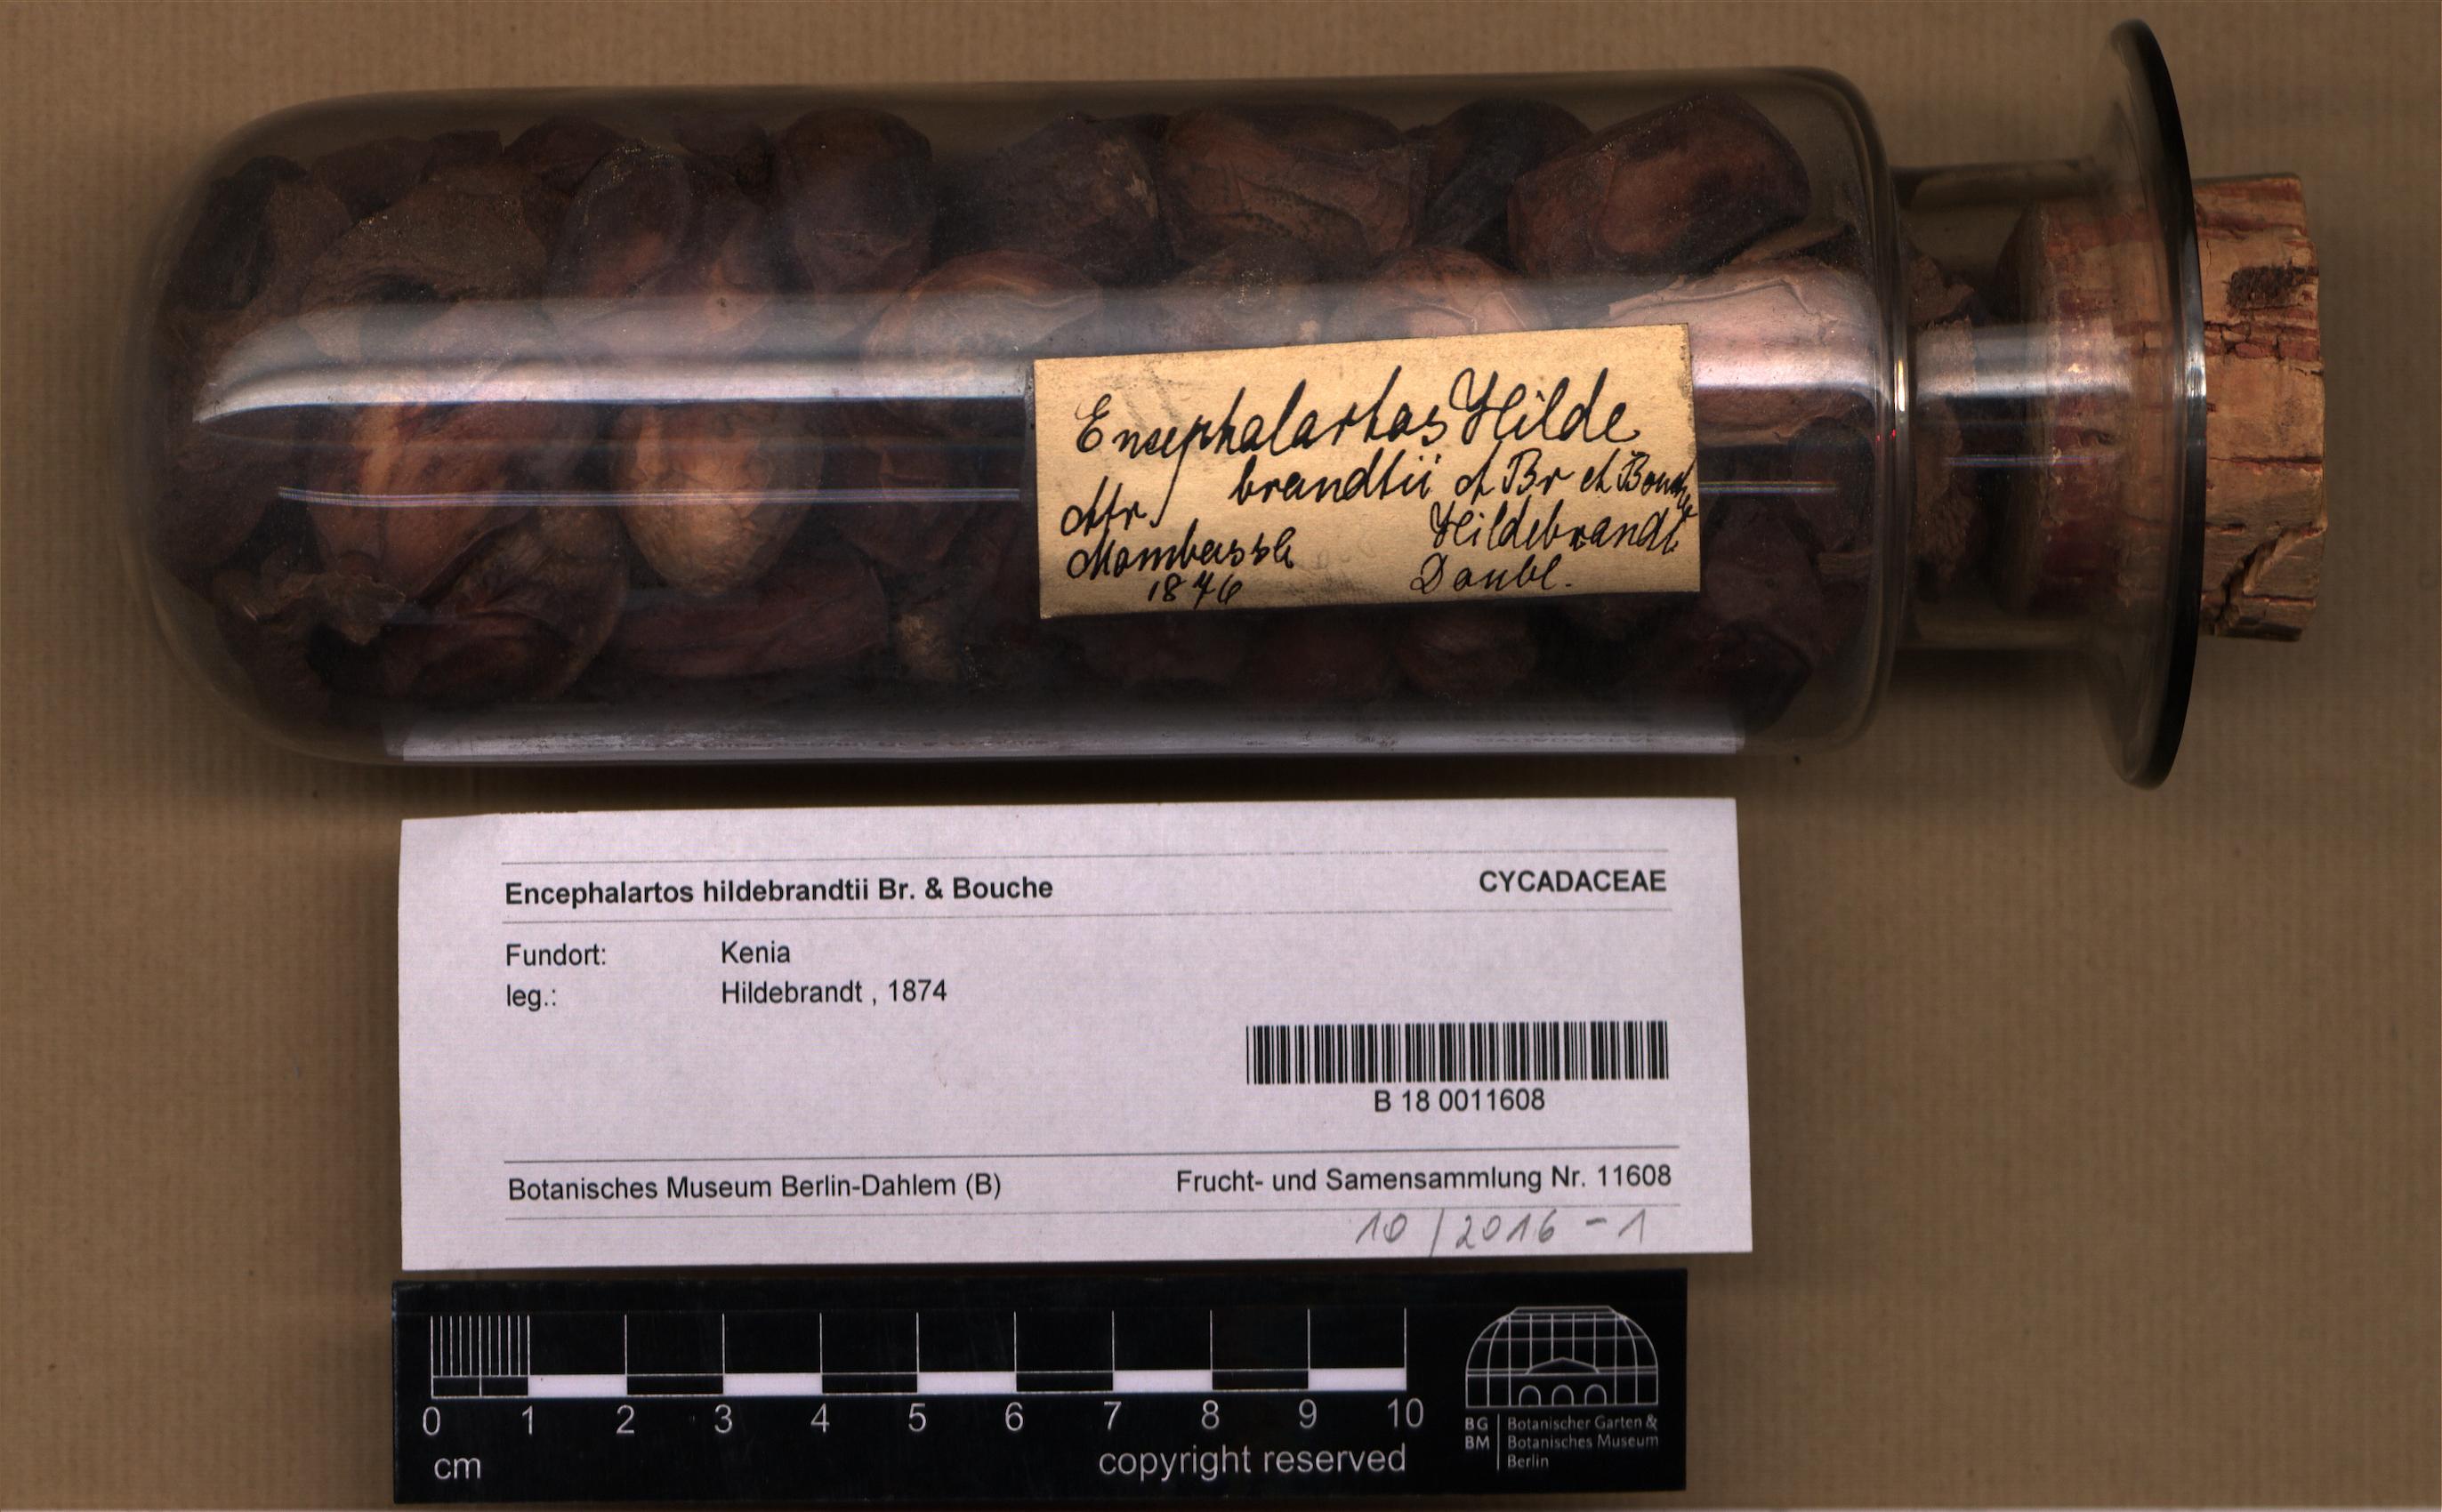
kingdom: Plantae
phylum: Tracheophyta
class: Cycadopsida
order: Cycadales
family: Zamiaceae
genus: Encephalartos
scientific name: Encephalartos hildebrandtii
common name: Mombasa cycad
